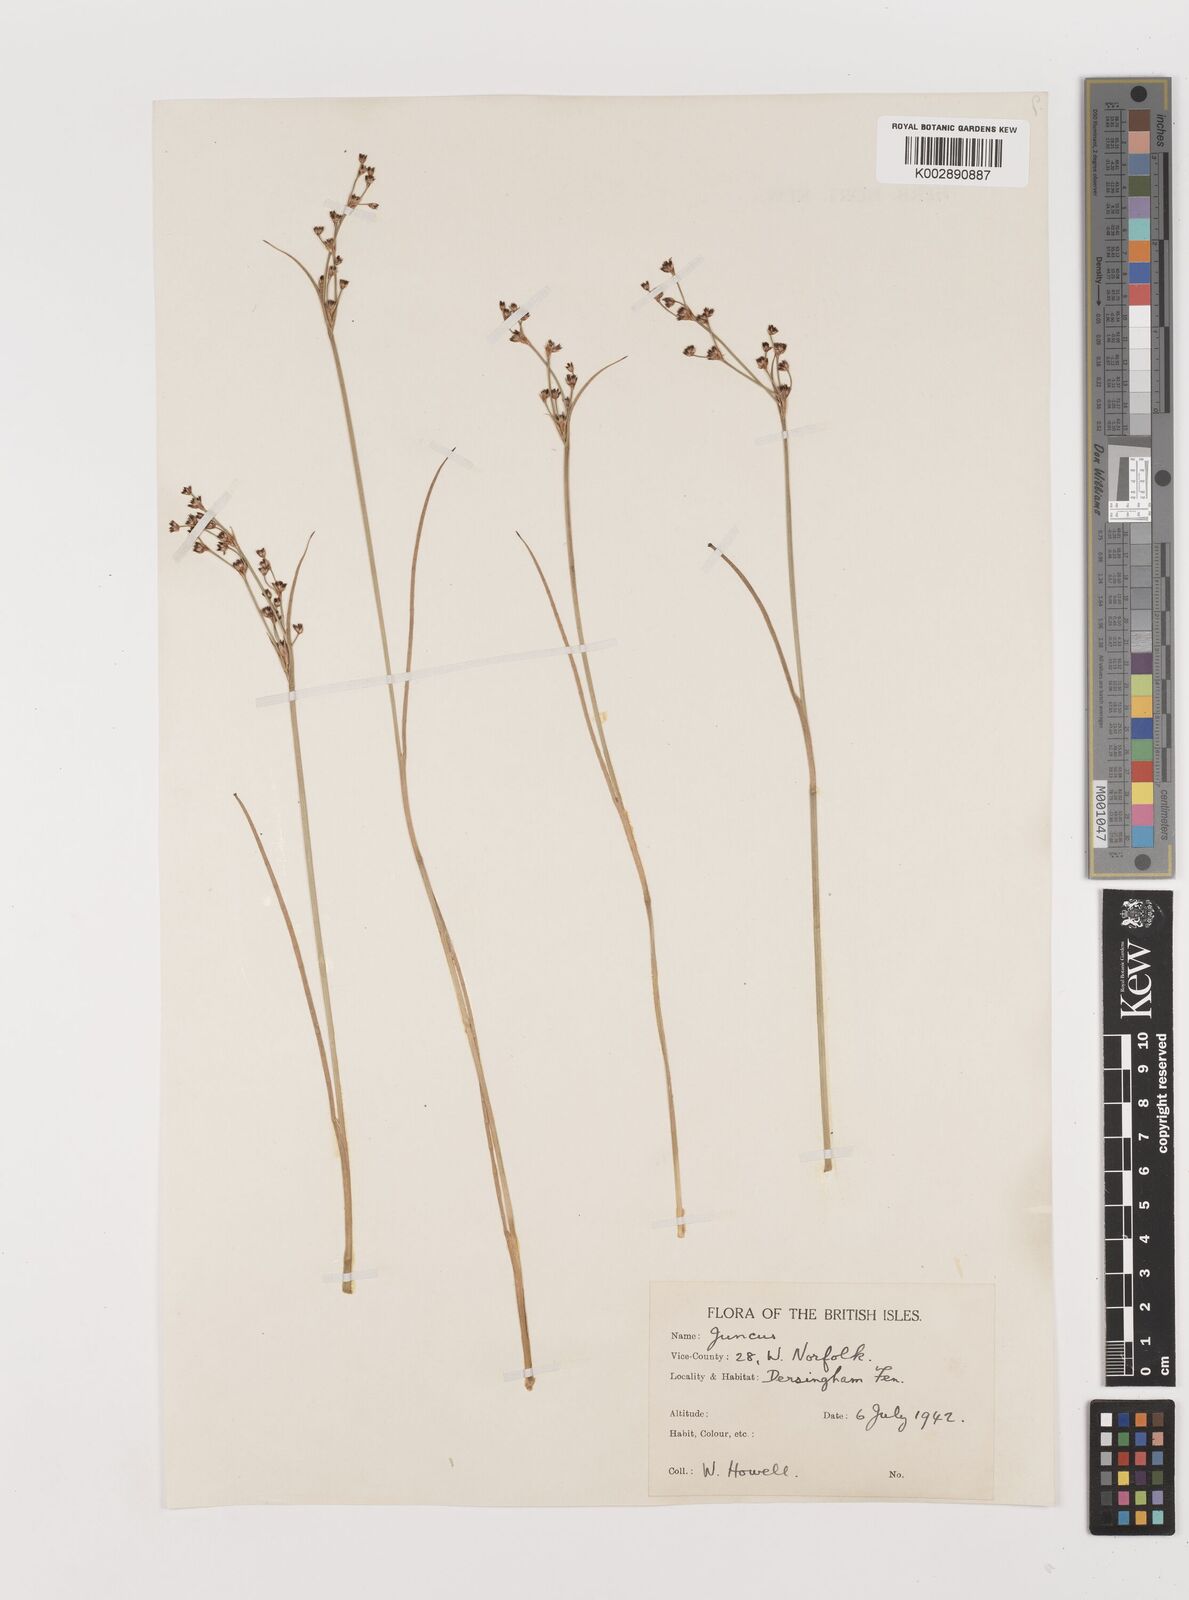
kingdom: Plantae
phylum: Tracheophyta
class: Liliopsida
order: Poales
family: Juncaceae
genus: Juncus
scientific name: Juncus
